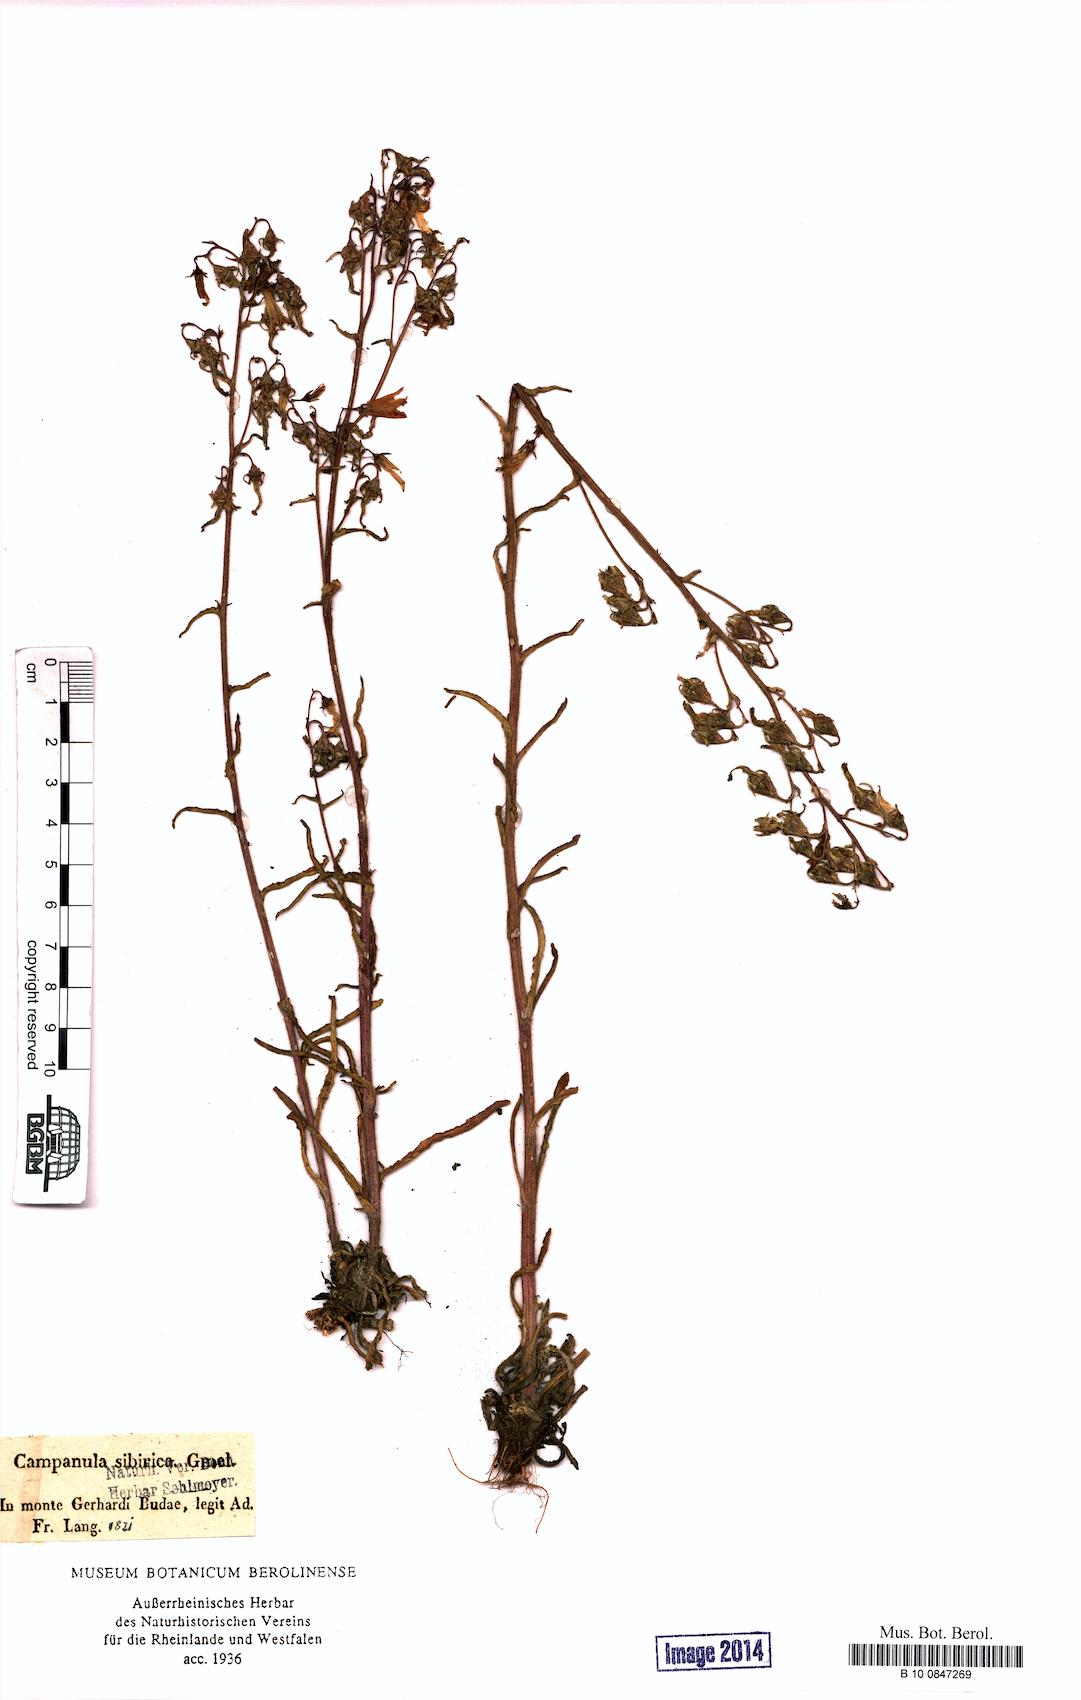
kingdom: Plantae
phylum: Tracheophyta
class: Magnoliopsida
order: Asterales
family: Campanulaceae
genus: Campanula
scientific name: Campanula sibirica
